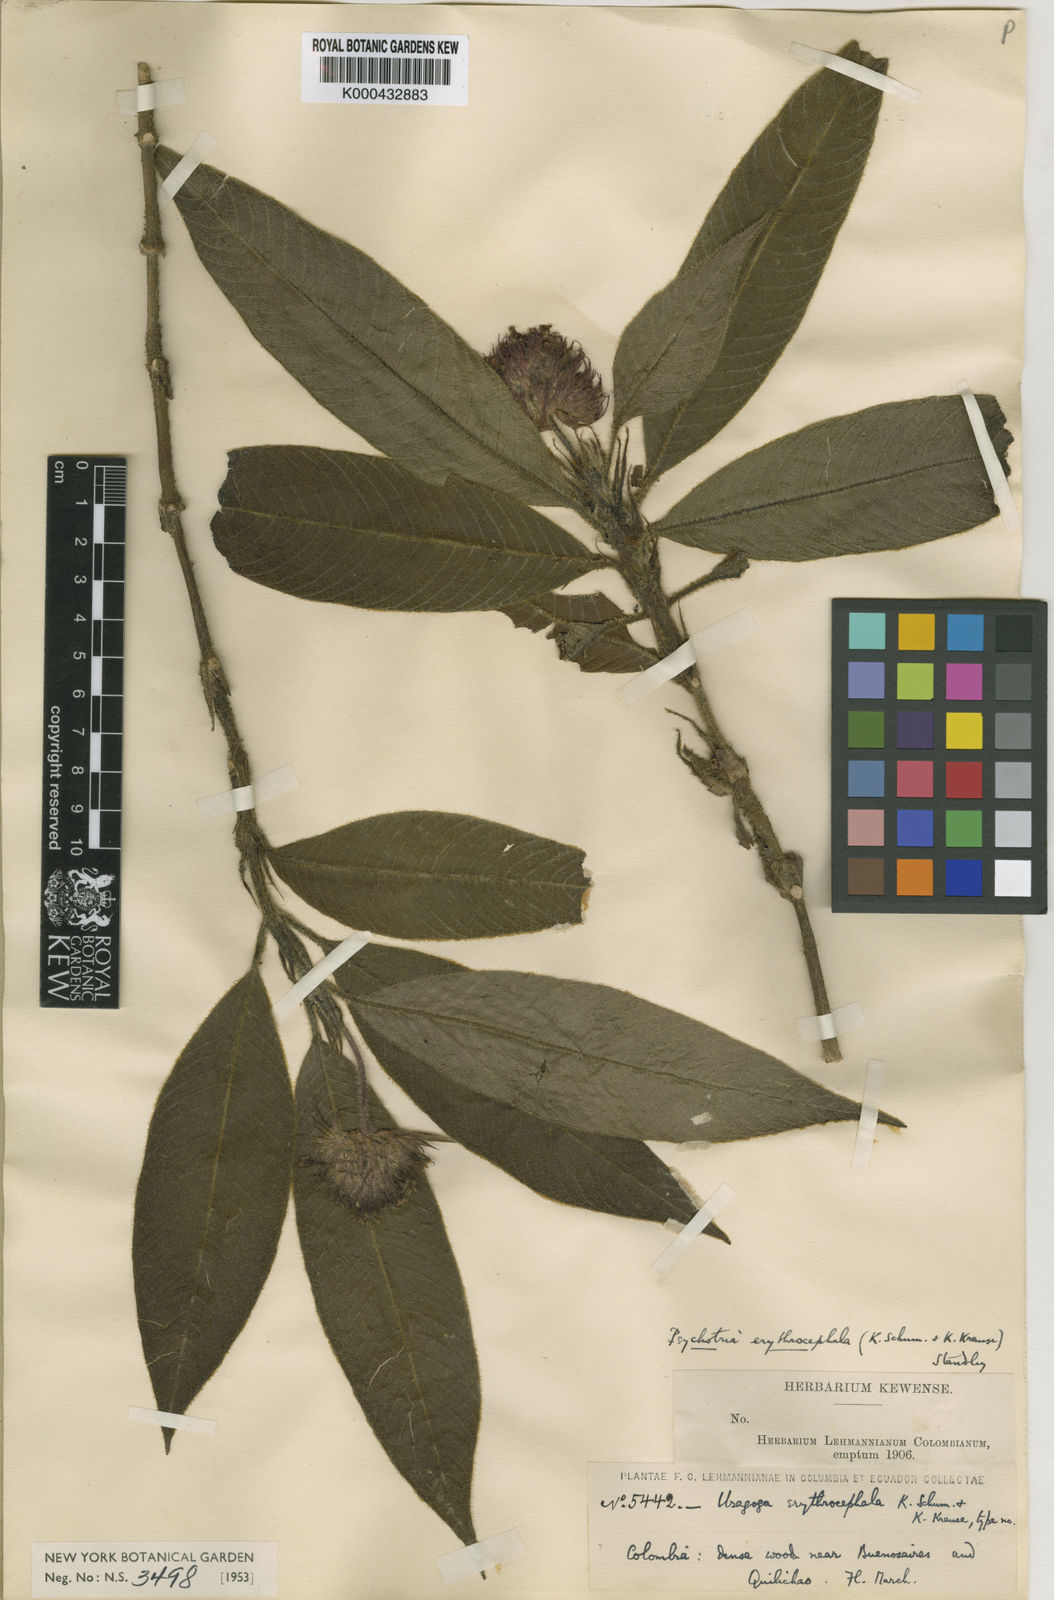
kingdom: Plantae
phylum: Tracheophyta
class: Magnoliopsida
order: Gentianales
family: Rubiaceae
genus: Palicourea
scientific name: Palicourea erythrocephala
